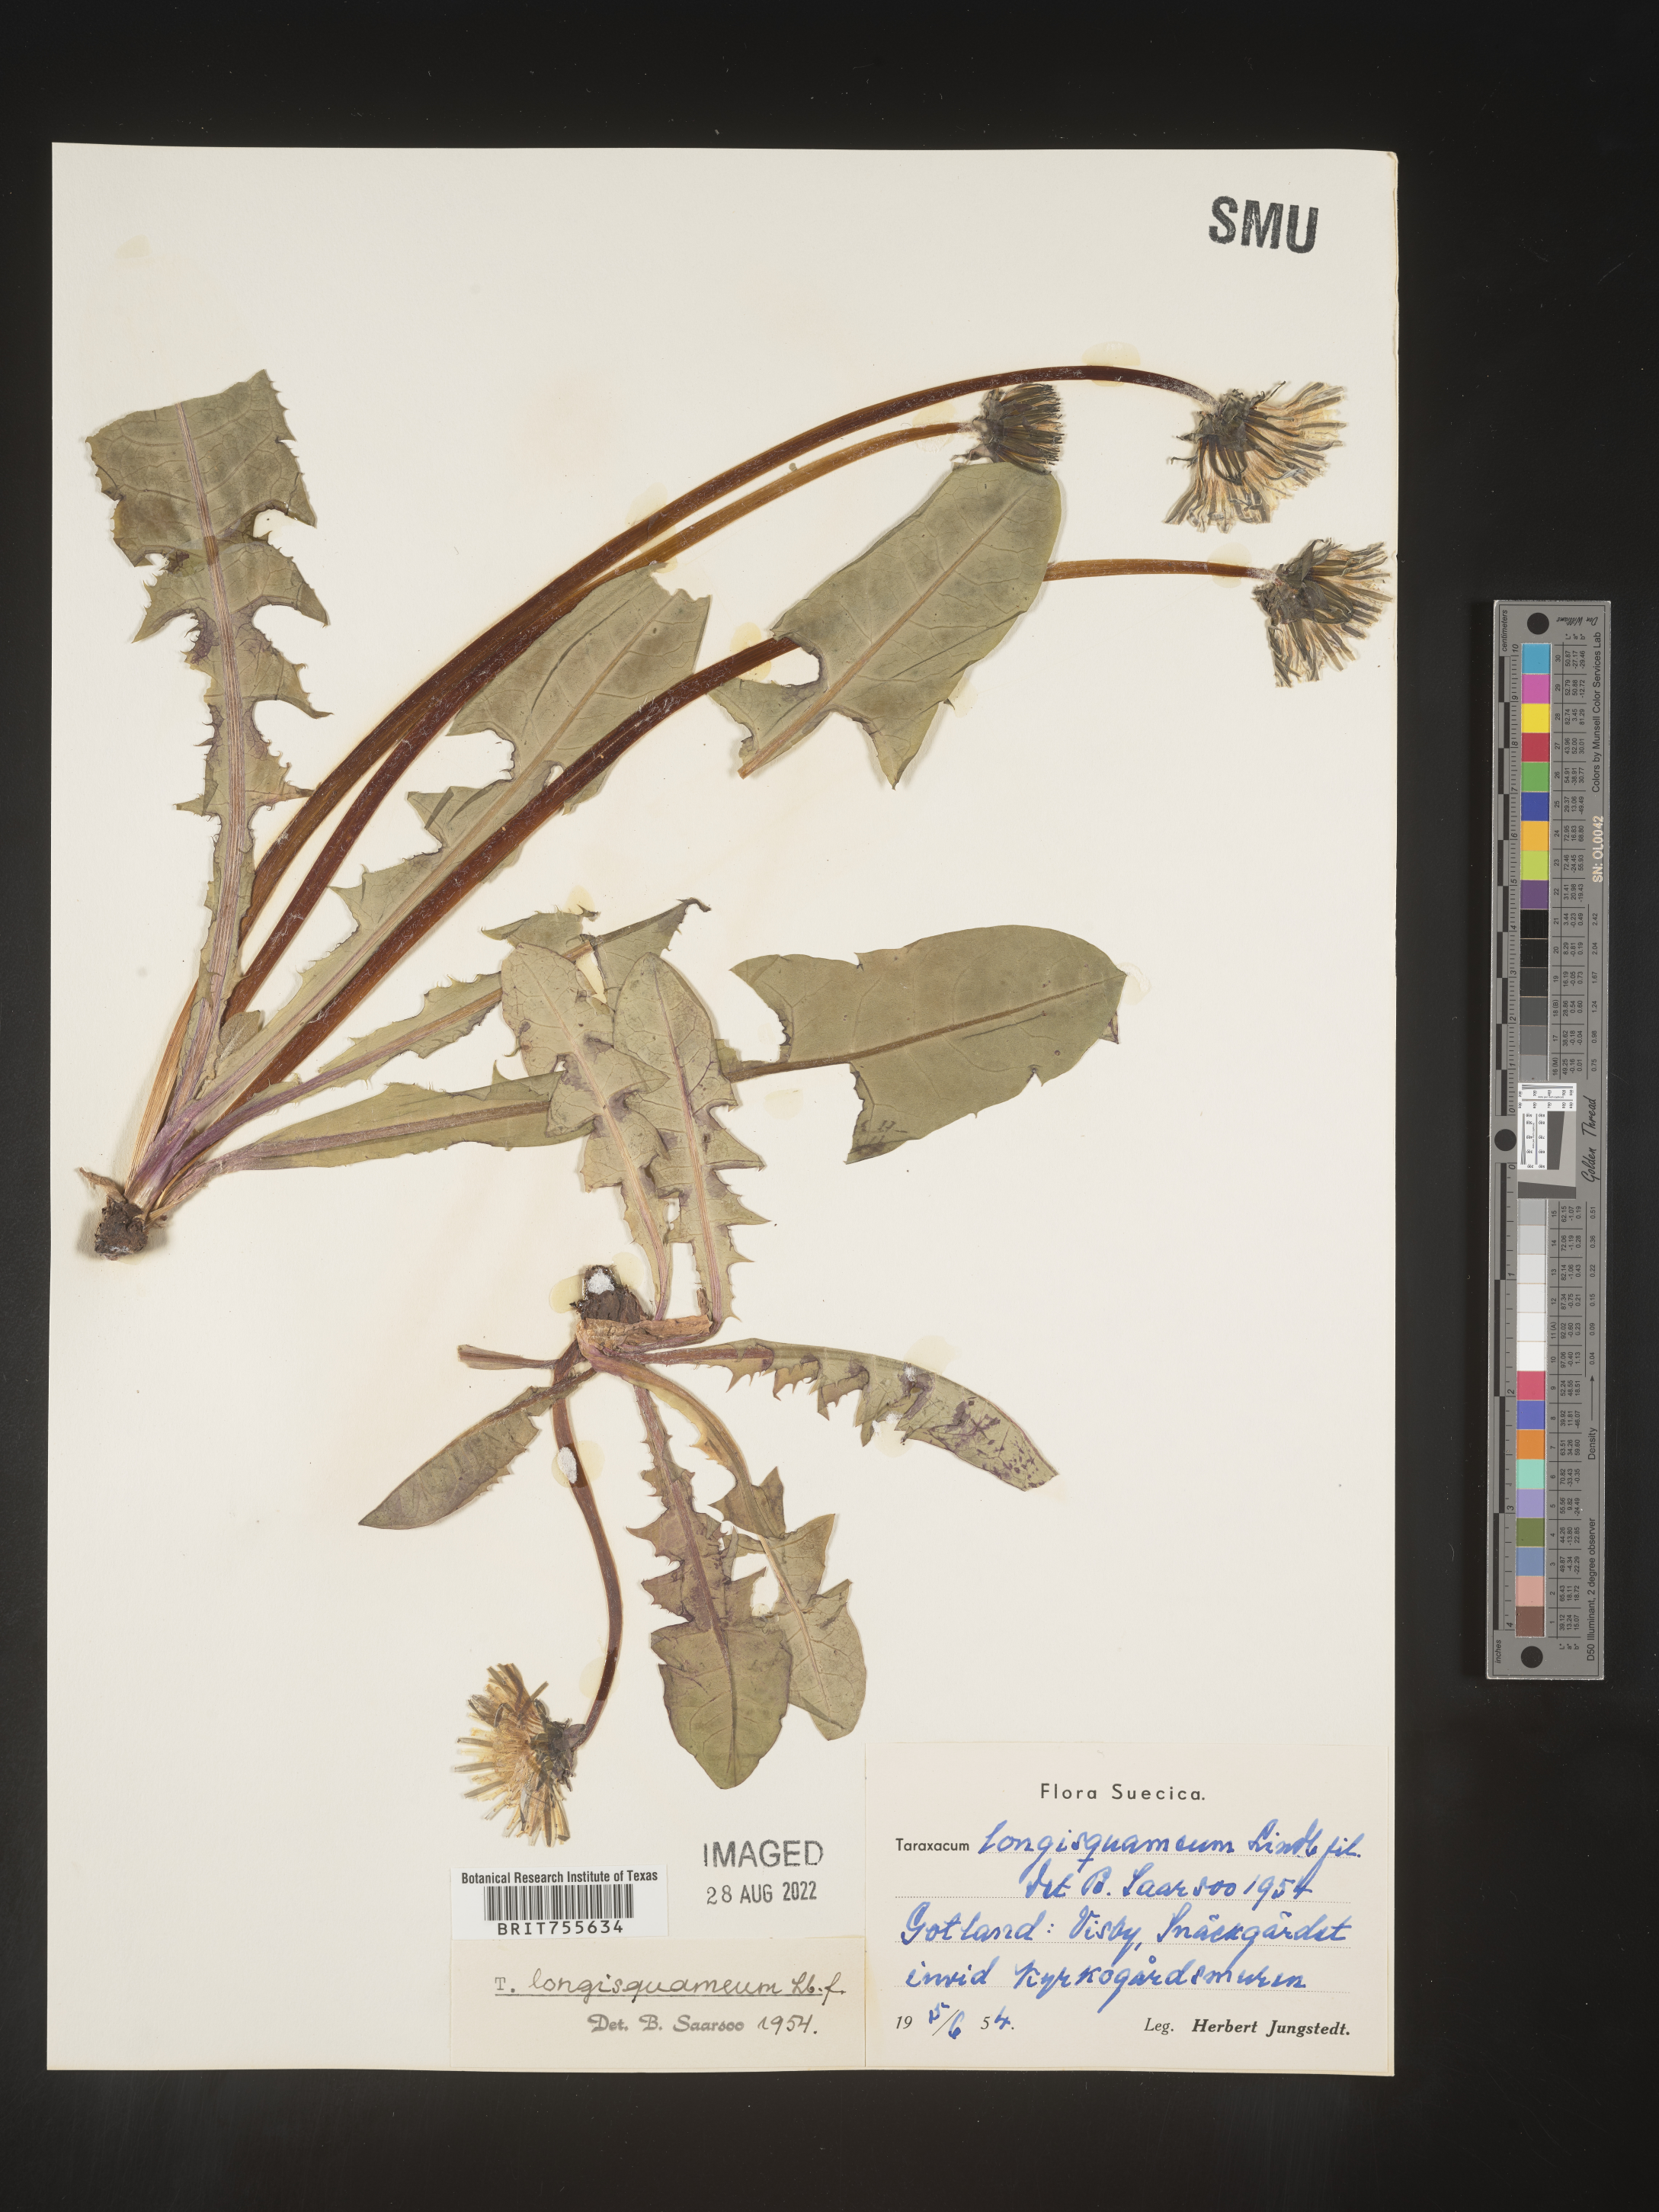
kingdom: Plantae
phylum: Tracheophyta
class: Magnoliopsida
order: Asterales
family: Asteraceae
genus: Taraxacum
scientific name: Taraxacum
